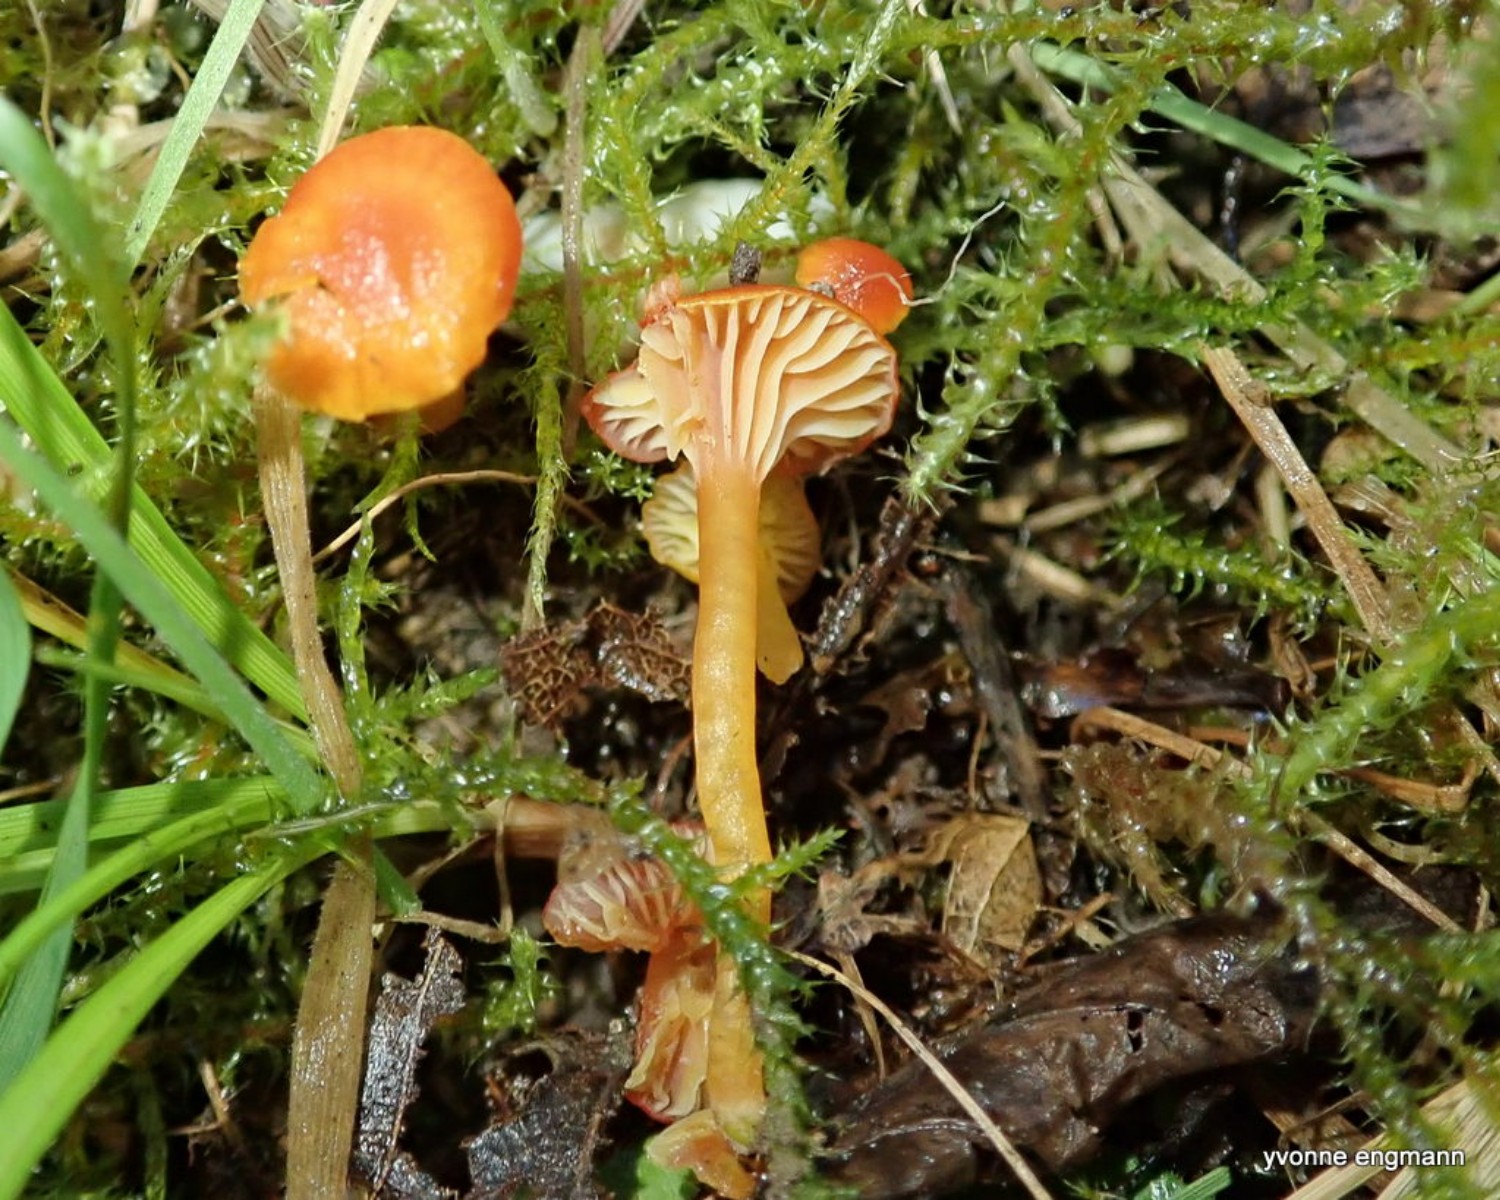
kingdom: Fungi
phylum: Basidiomycota
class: Agaricomycetes
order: Agaricales
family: Hygrophoraceae
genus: Hygrocybe
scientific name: Hygrocybe insipida
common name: liden vokshat
